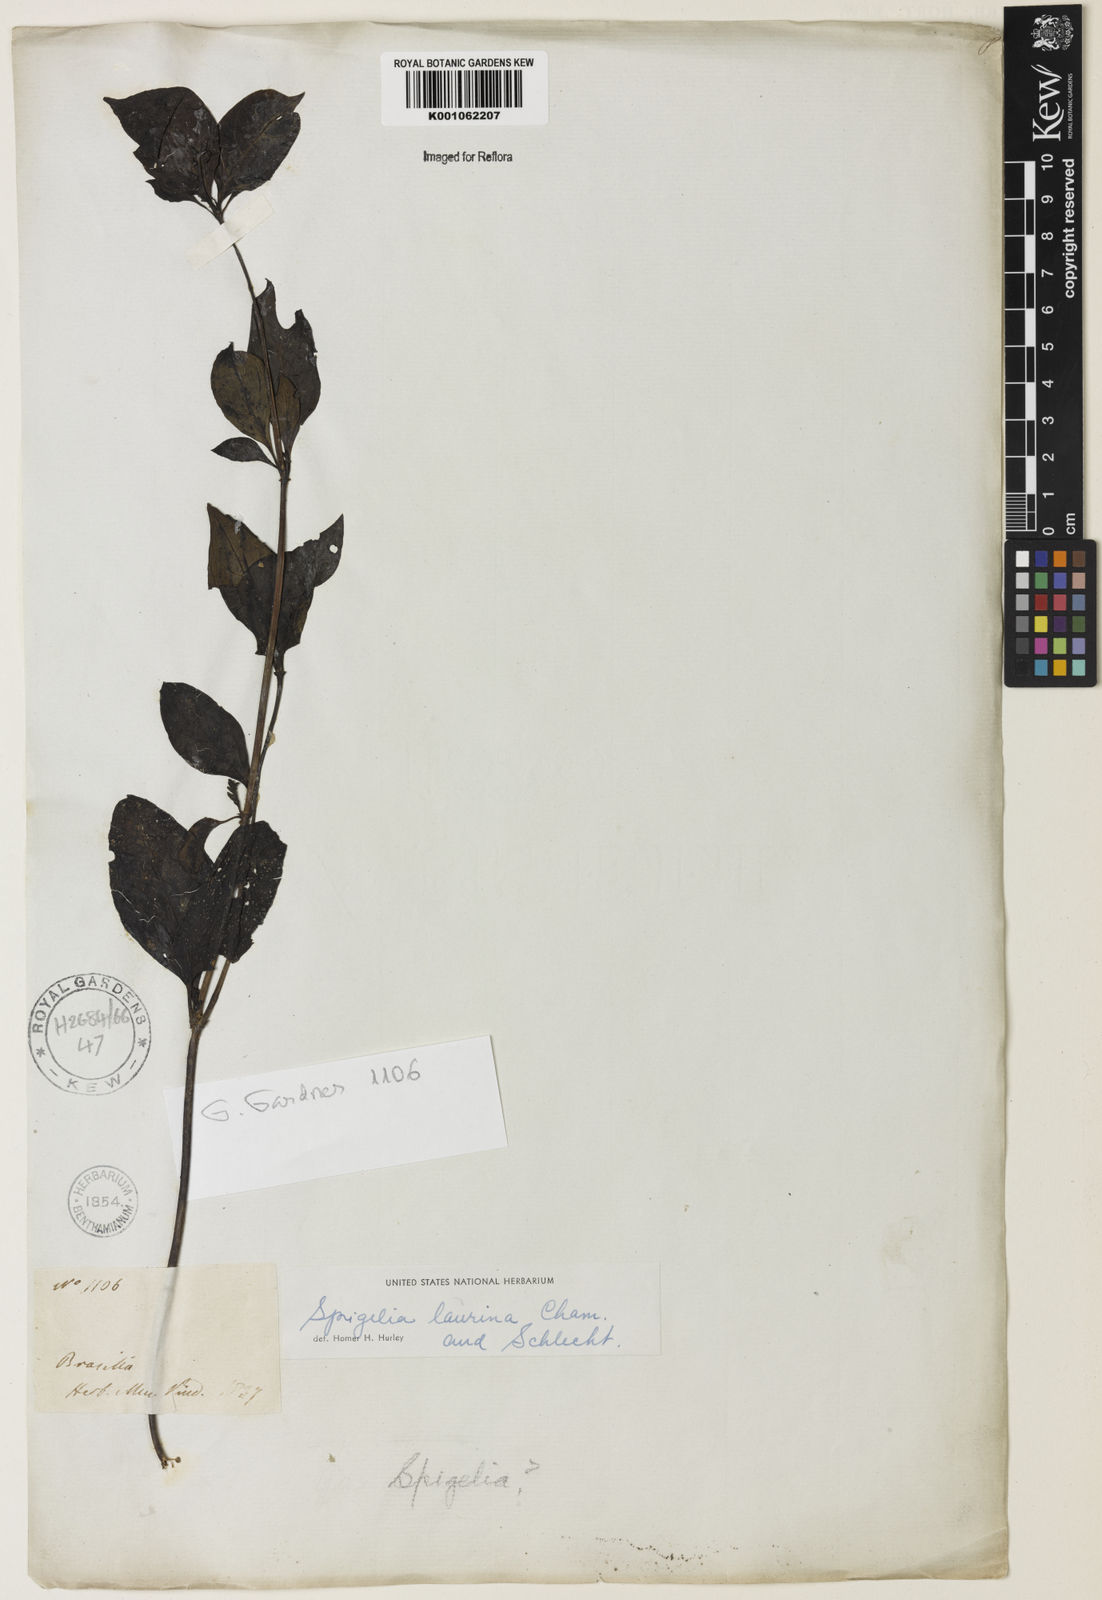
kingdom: Plantae
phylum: Tracheophyta
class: Magnoliopsida
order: Gentianales
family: Loganiaceae
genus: Spigelia
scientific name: Spigelia laurina
